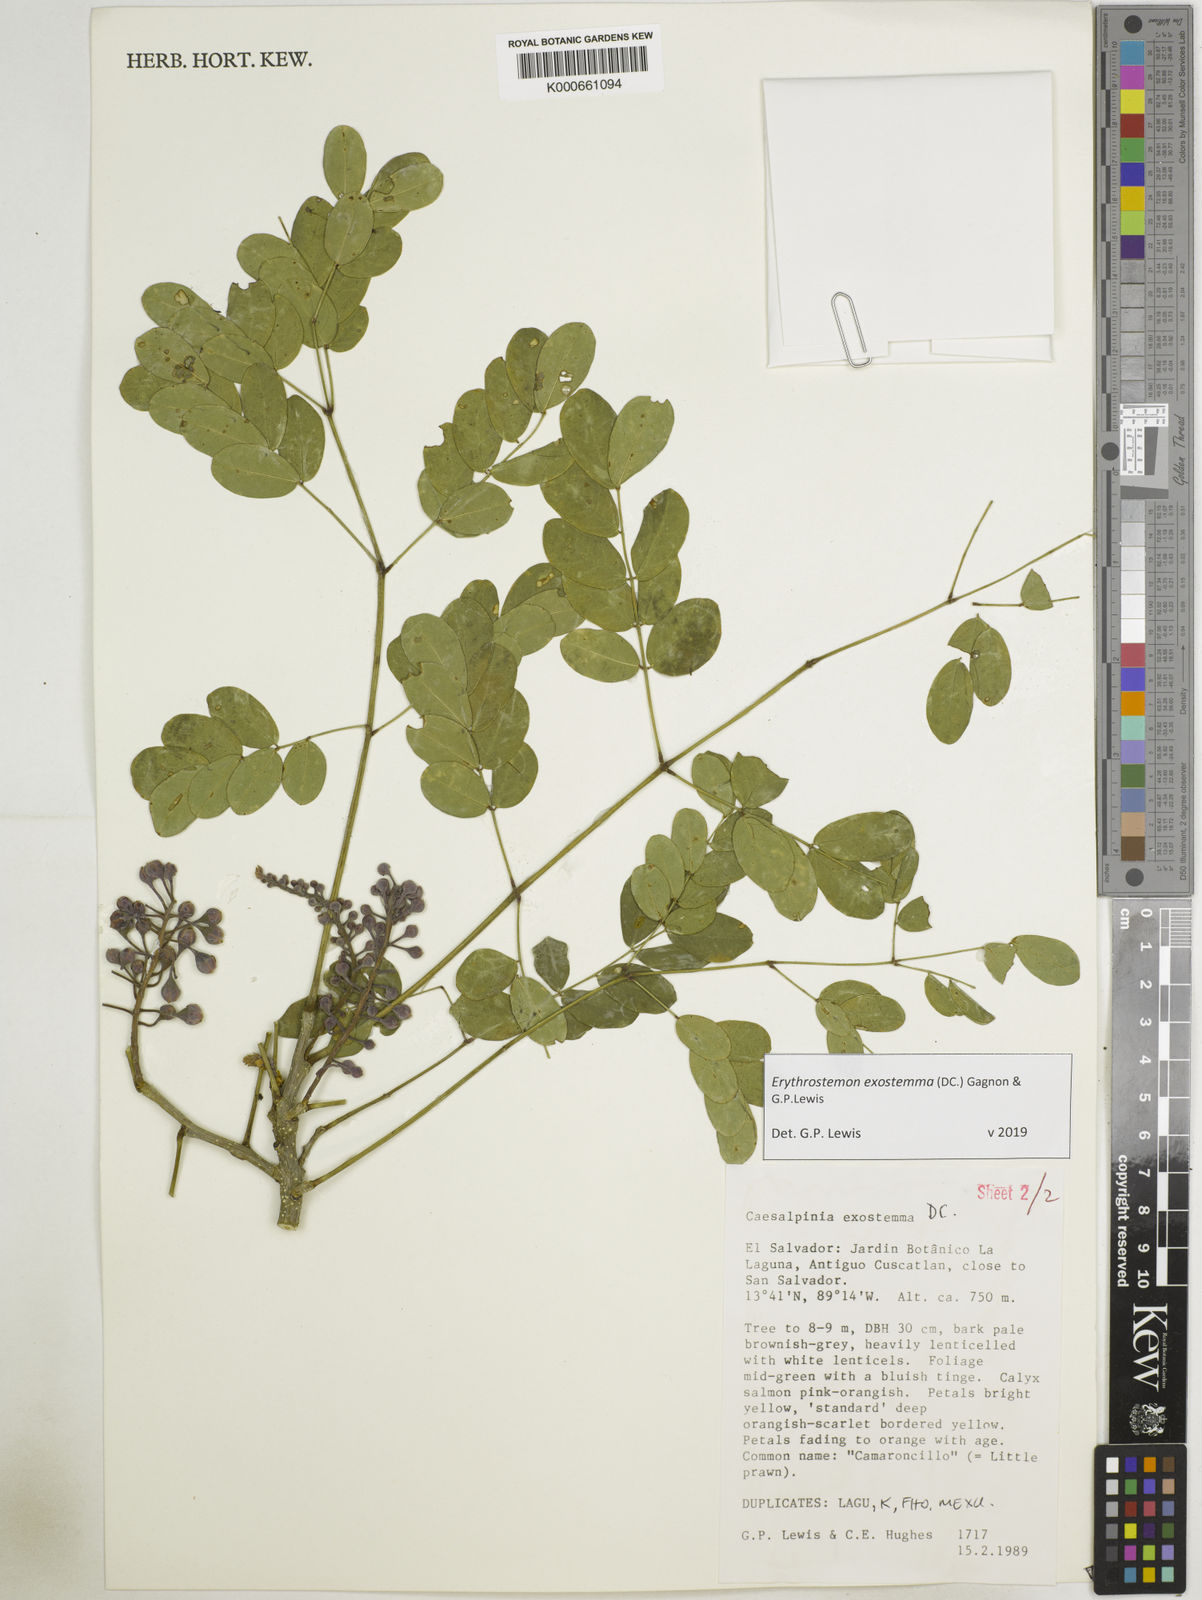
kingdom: Plantae
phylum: Tracheophyta
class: Magnoliopsida
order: Fabales
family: Fabaceae
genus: Erythrostemon
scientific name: Erythrostemon exostemma
